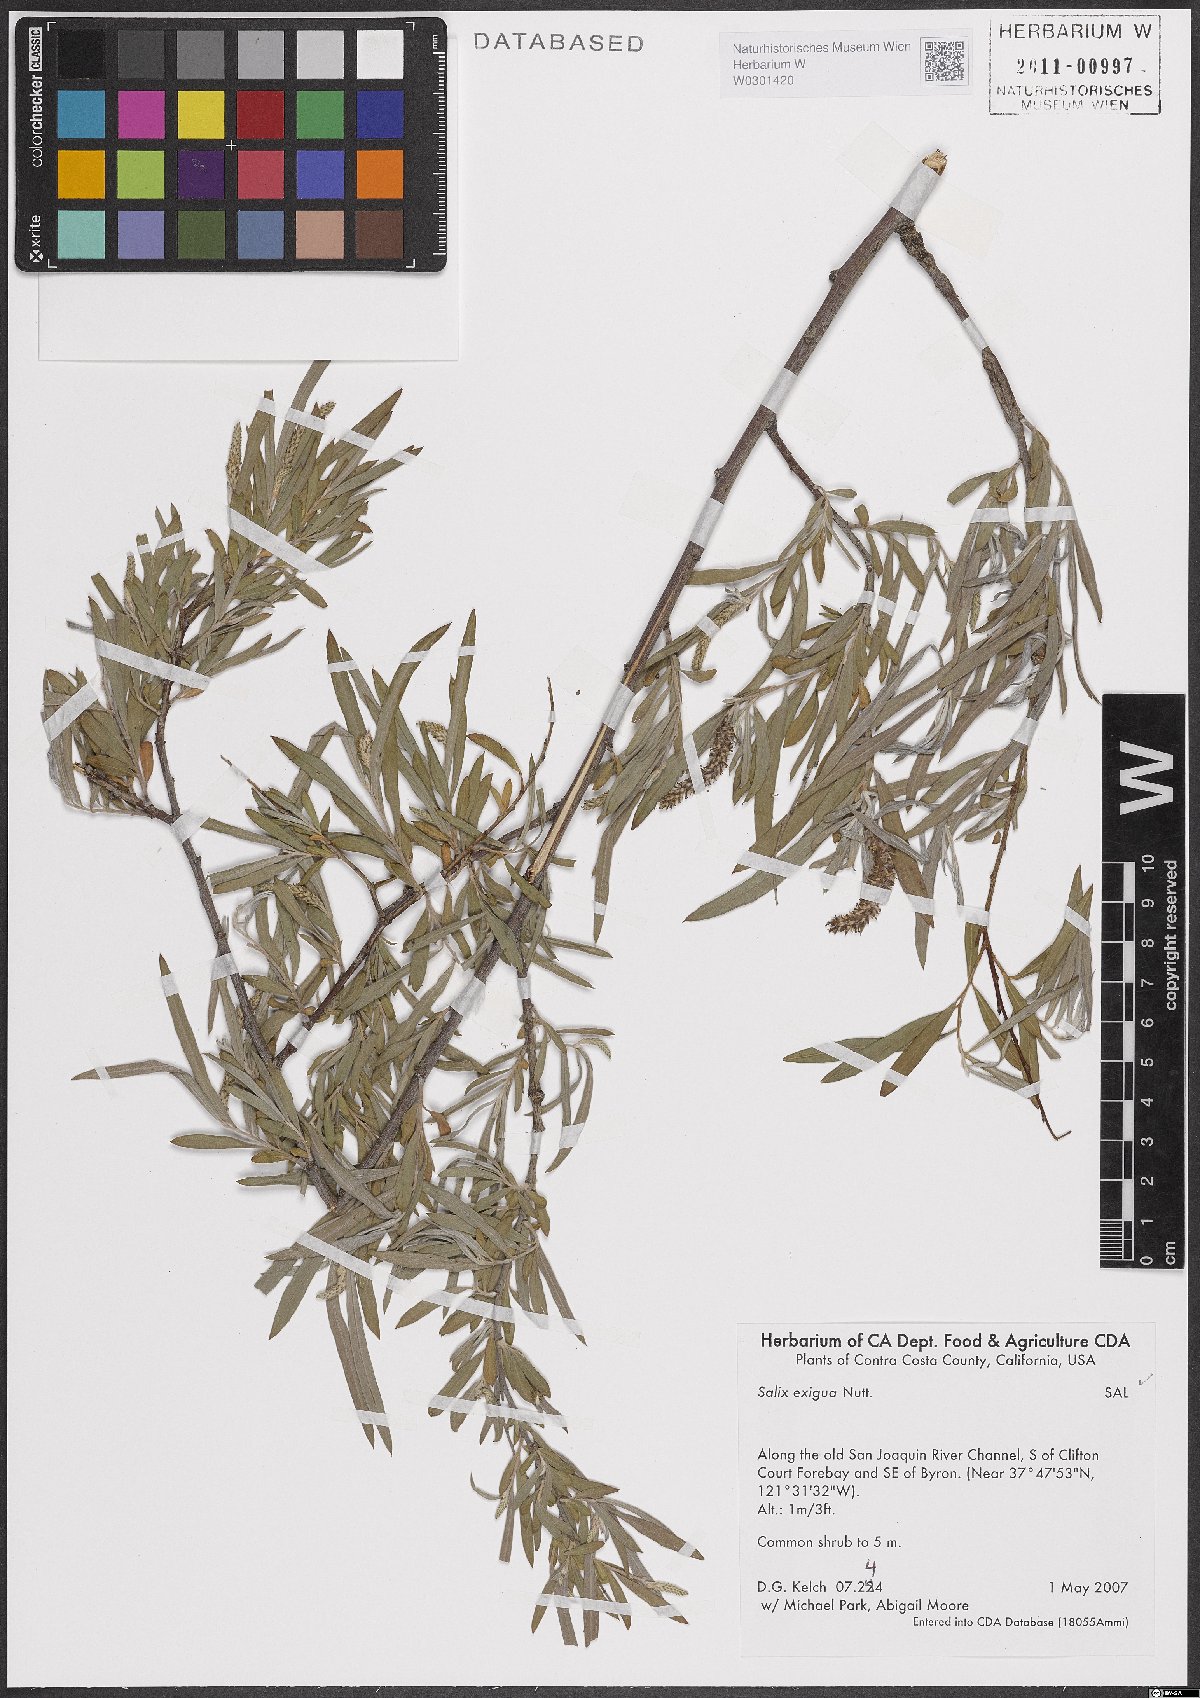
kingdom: Plantae
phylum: Tracheophyta
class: Magnoliopsida
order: Malpighiales
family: Salicaceae
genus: Salix
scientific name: Salix exigua
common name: Coyote willow
